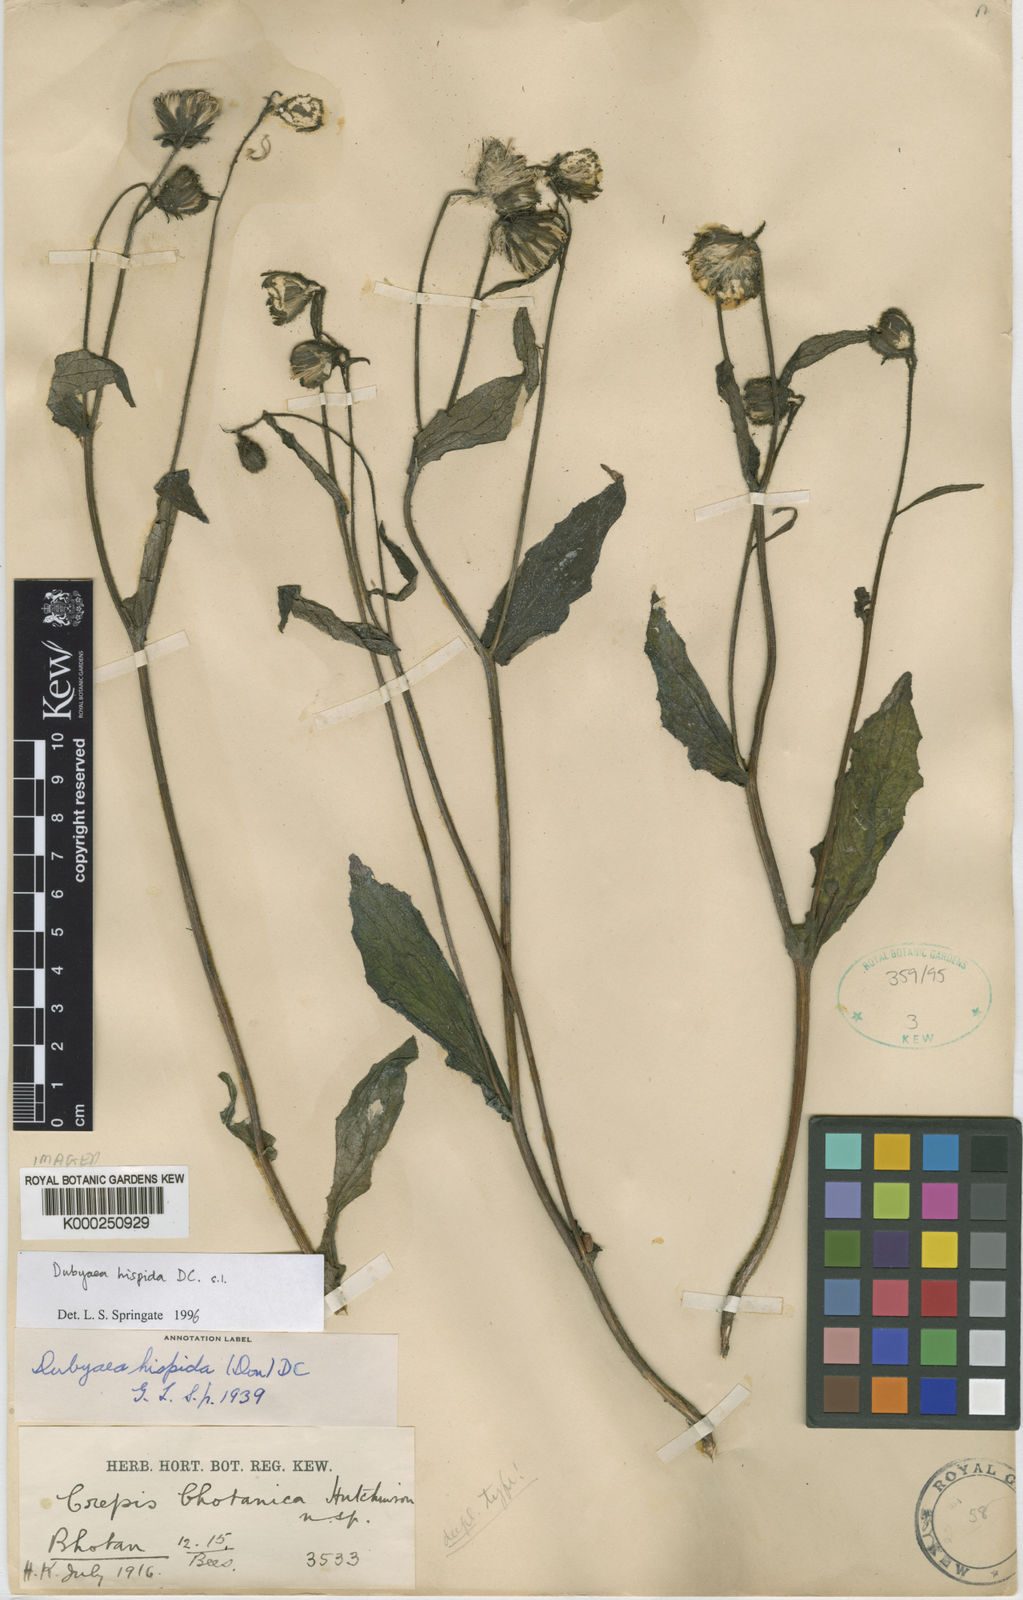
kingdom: Plantae
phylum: Tracheophyta
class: Magnoliopsida
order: Asterales
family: Asteraceae
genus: Dubyaea
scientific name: Dubyaea hispida
